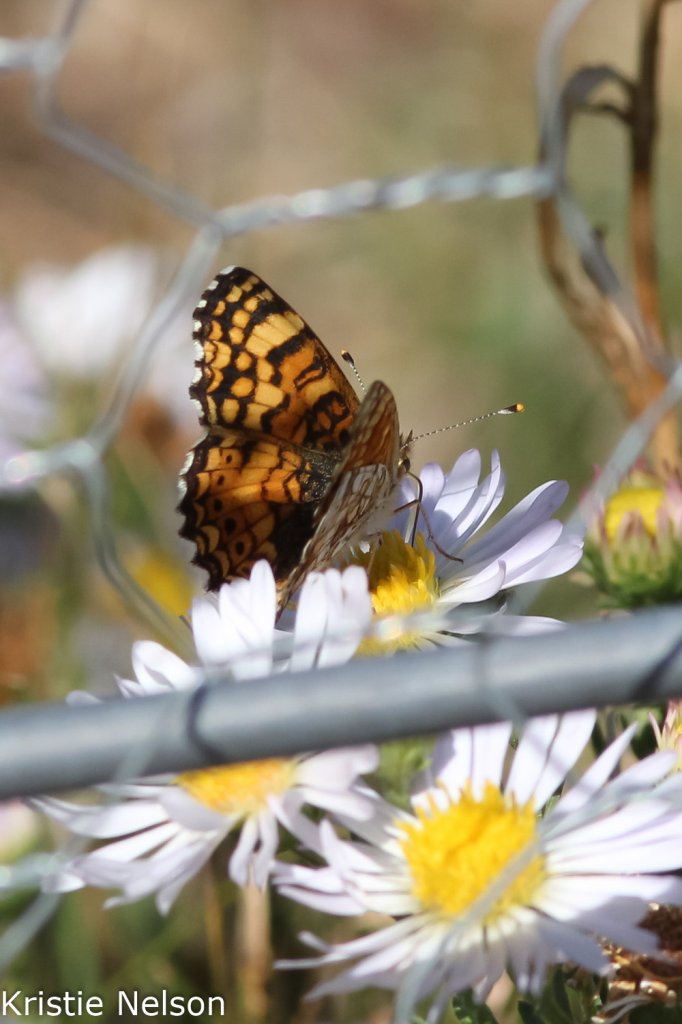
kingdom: Animalia
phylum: Arthropoda
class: Insecta
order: Lepidoptera
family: Nymphalidae
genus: Eresia
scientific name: Eresia aveyrona
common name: Mylitta Crescent
